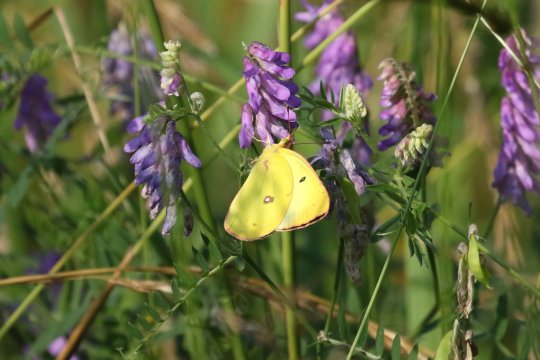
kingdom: Animalia
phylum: Arthropoda
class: Insecta
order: Lepidoptera
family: Pieridae
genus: Colias
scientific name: Colias philodice
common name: Clouded Sulphur
